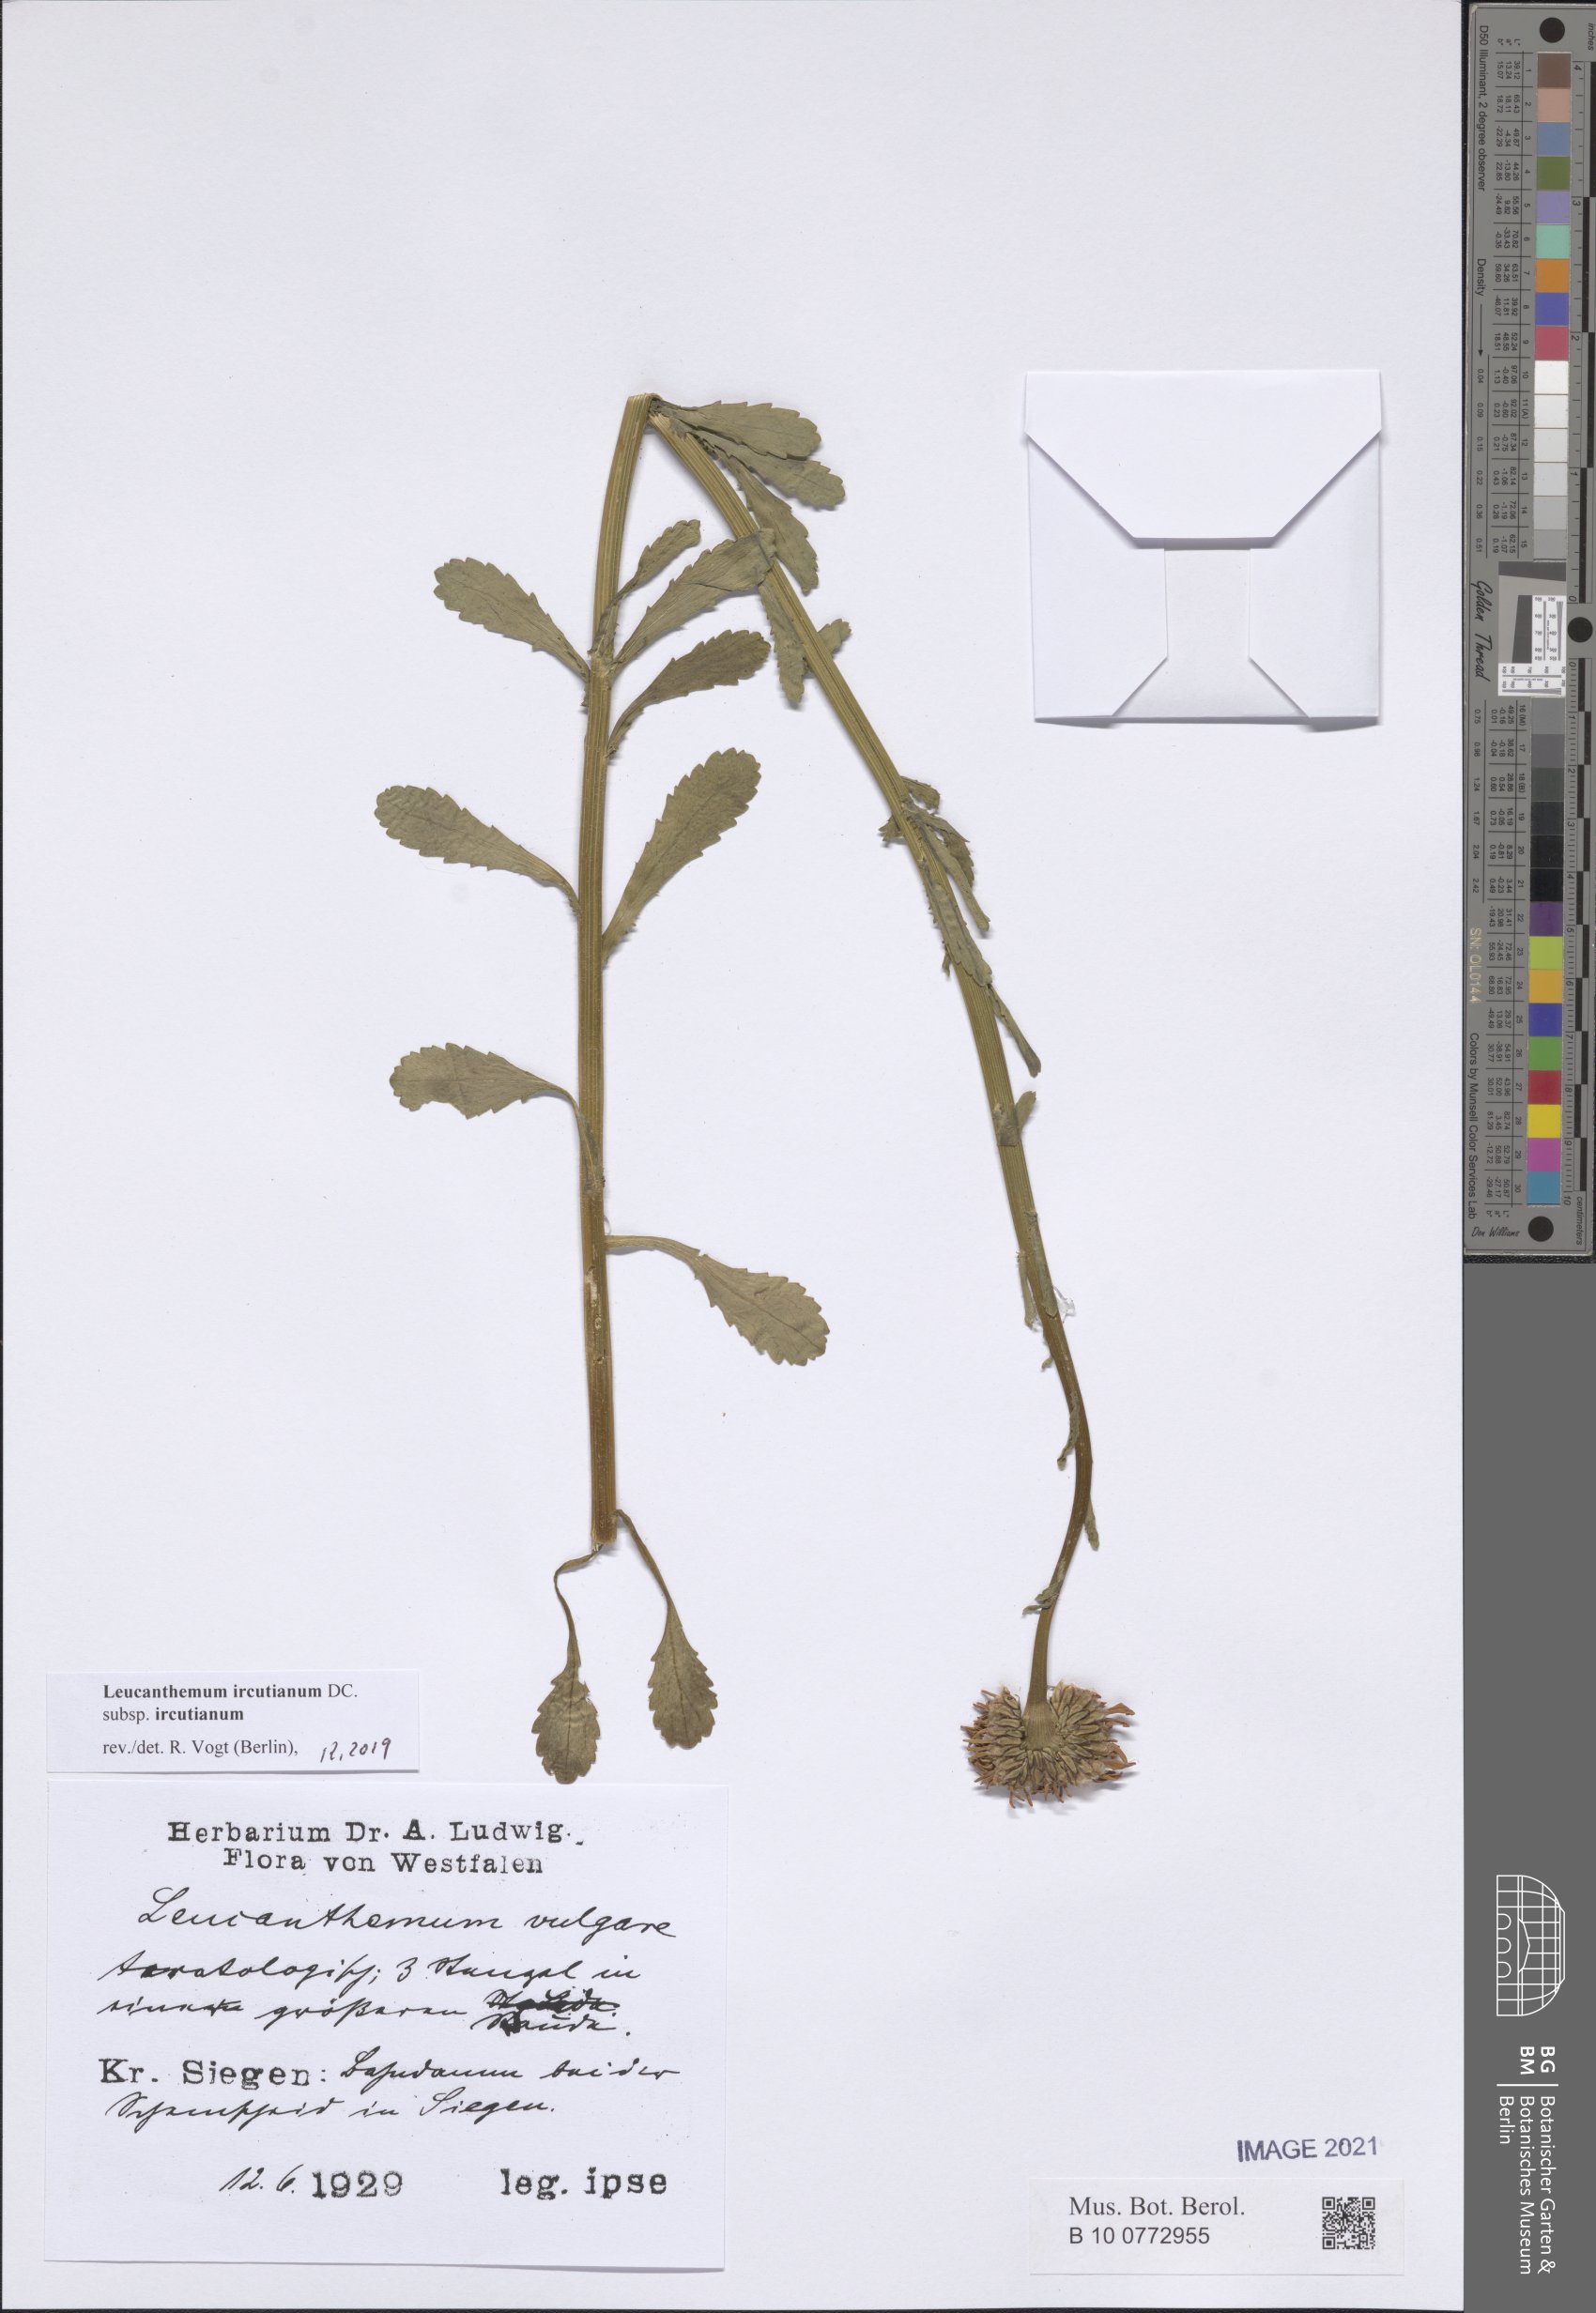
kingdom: Plantae
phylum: Tracheophyta
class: Magnoliopsida
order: Asterales
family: Asteraceae
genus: Leucanthemum
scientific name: Leucanthemum ircutianum
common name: Daisy
